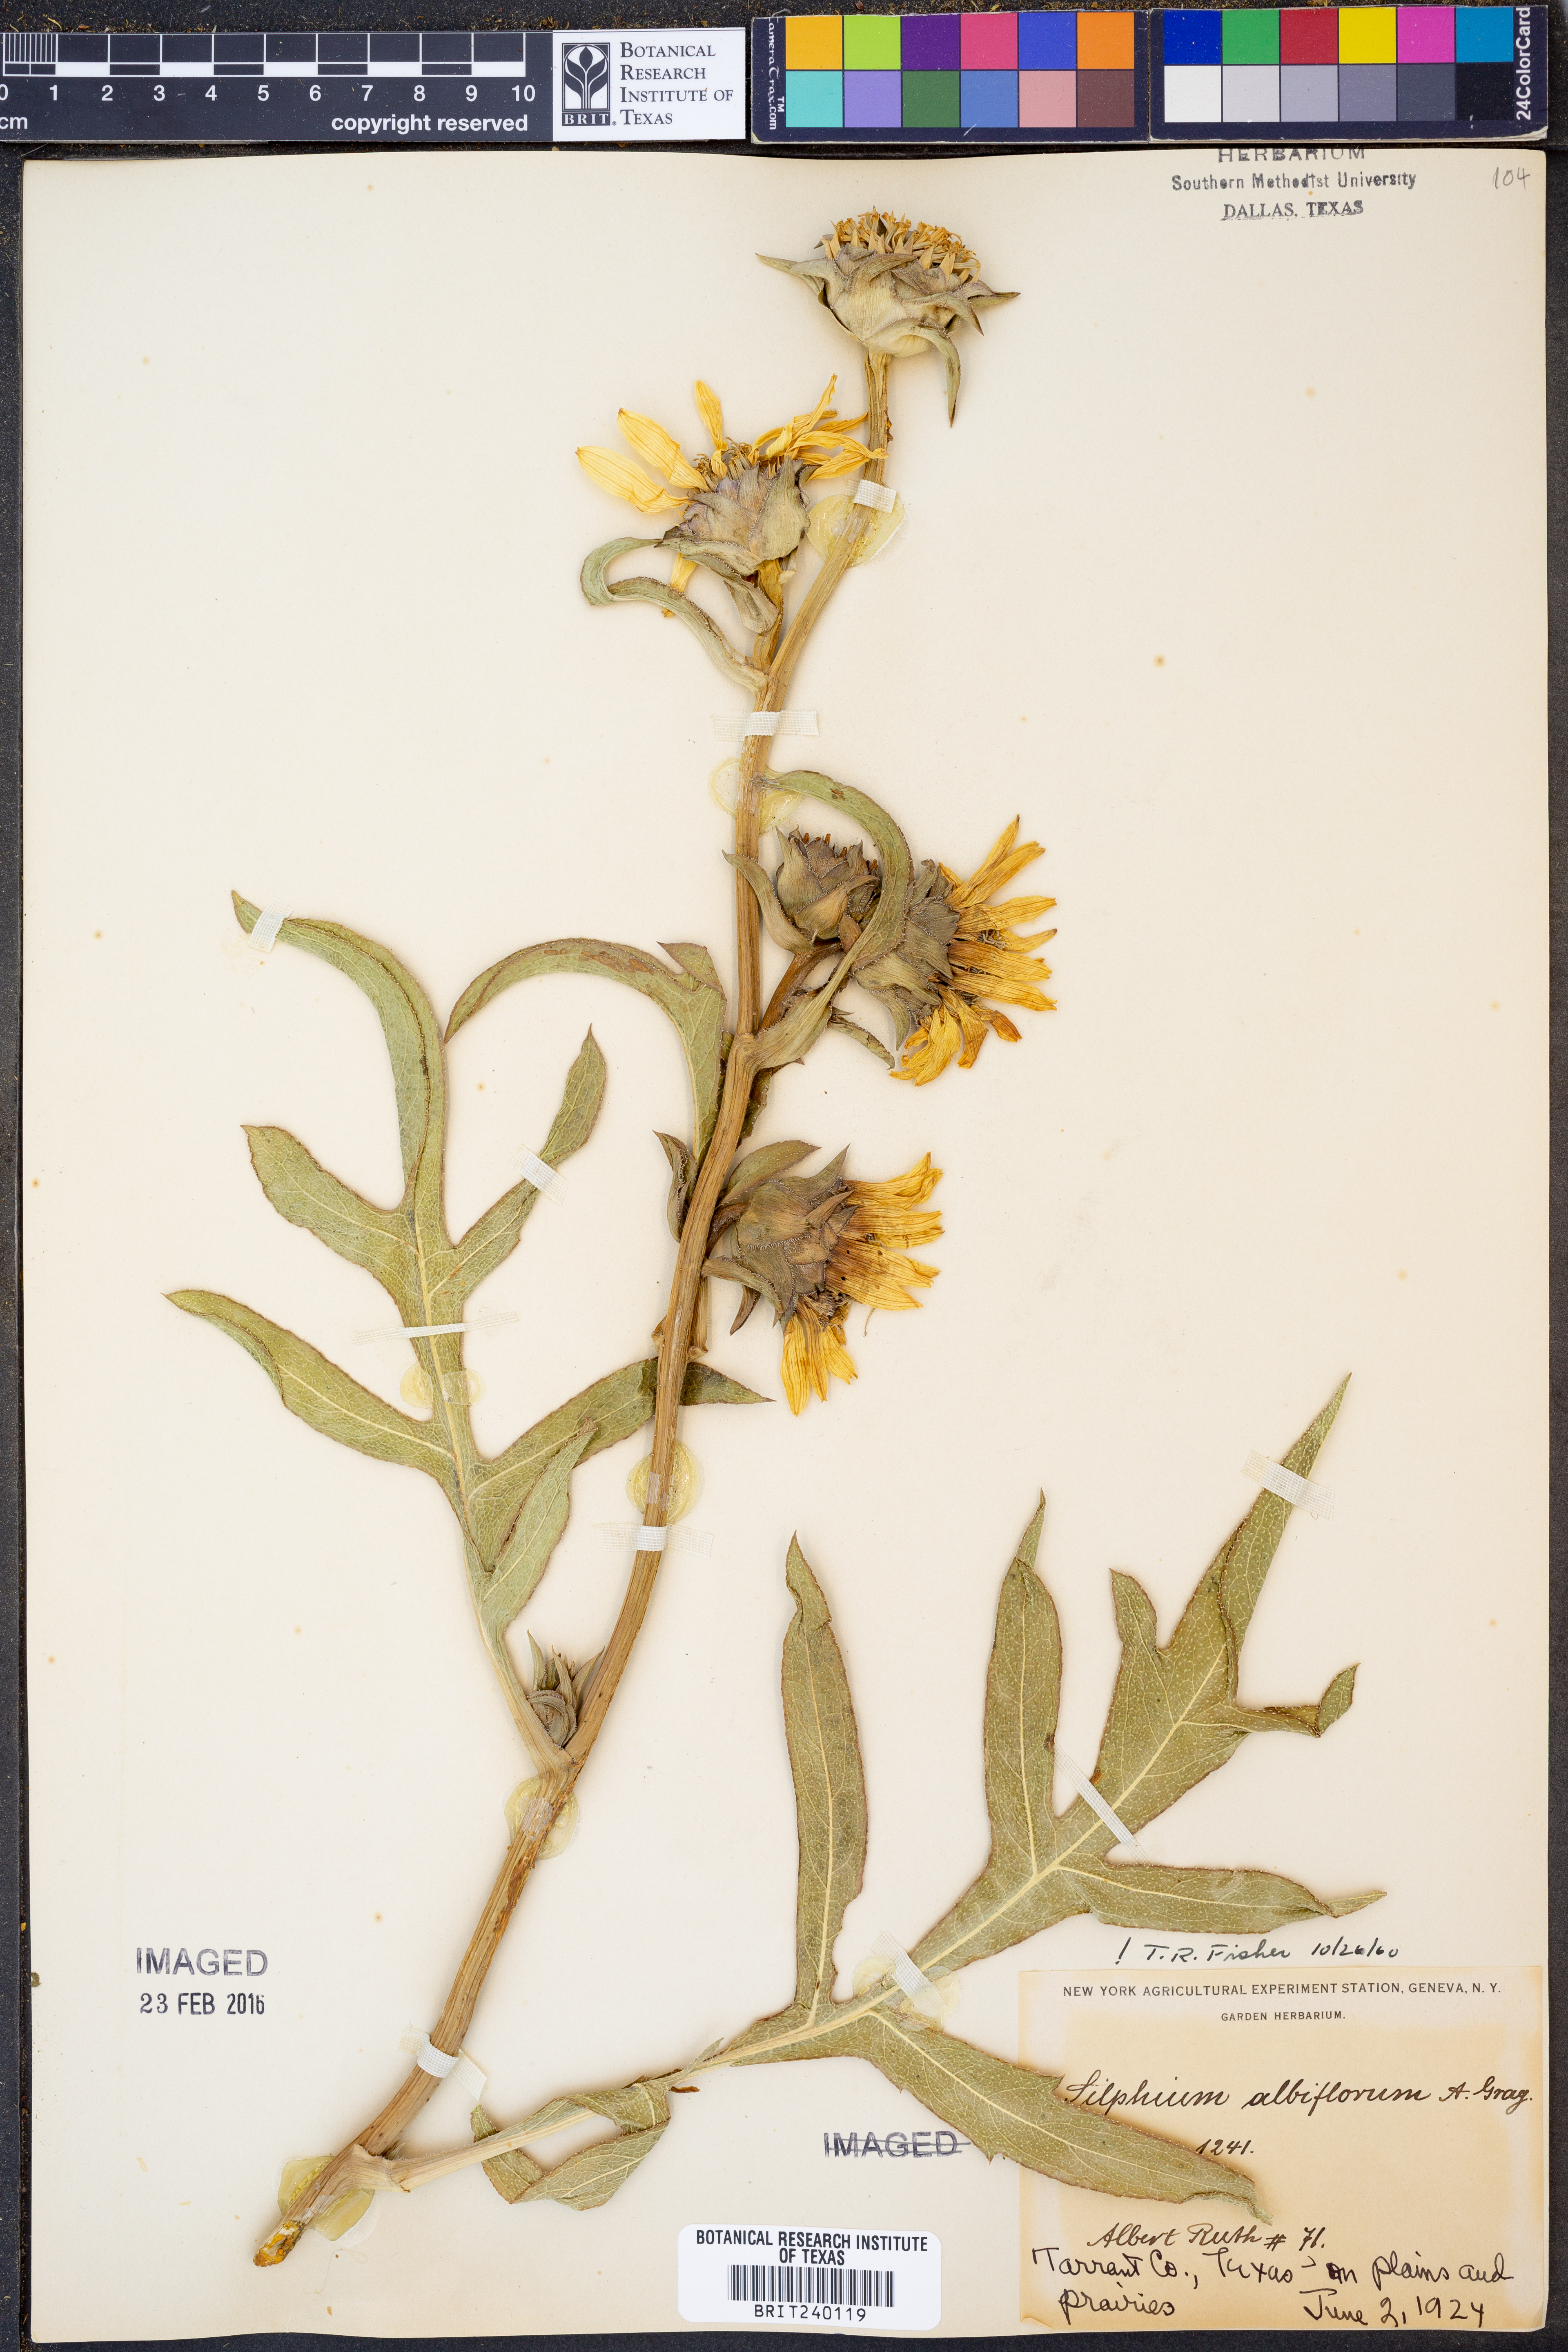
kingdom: Plantae
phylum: Tracheophyta
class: Magnoliopsida
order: Asterales
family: Asteraceae
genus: Silphium
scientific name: Silphium albiflorum
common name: White rosinweed
